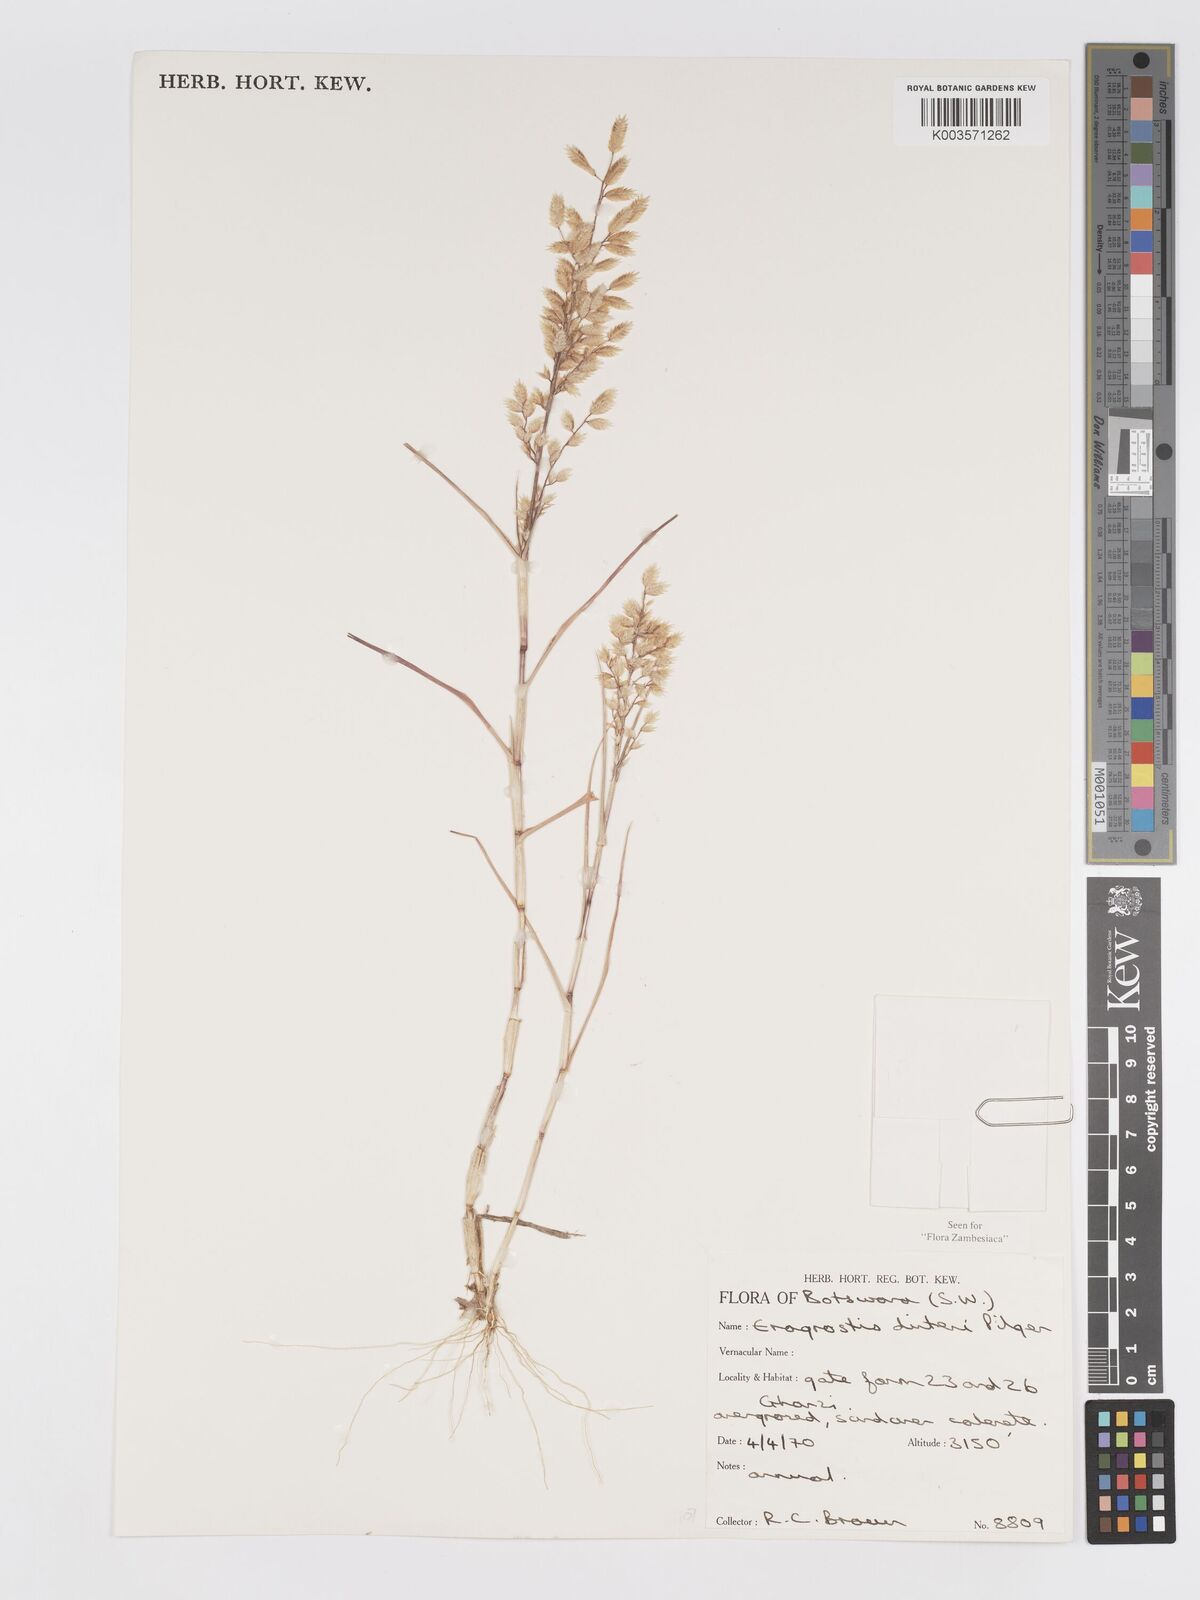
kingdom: Plantae
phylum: Tracheophyta
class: Liliopsida
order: Poales
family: Poaceae
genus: Eragrostis
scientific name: Eragrostis dinteri
